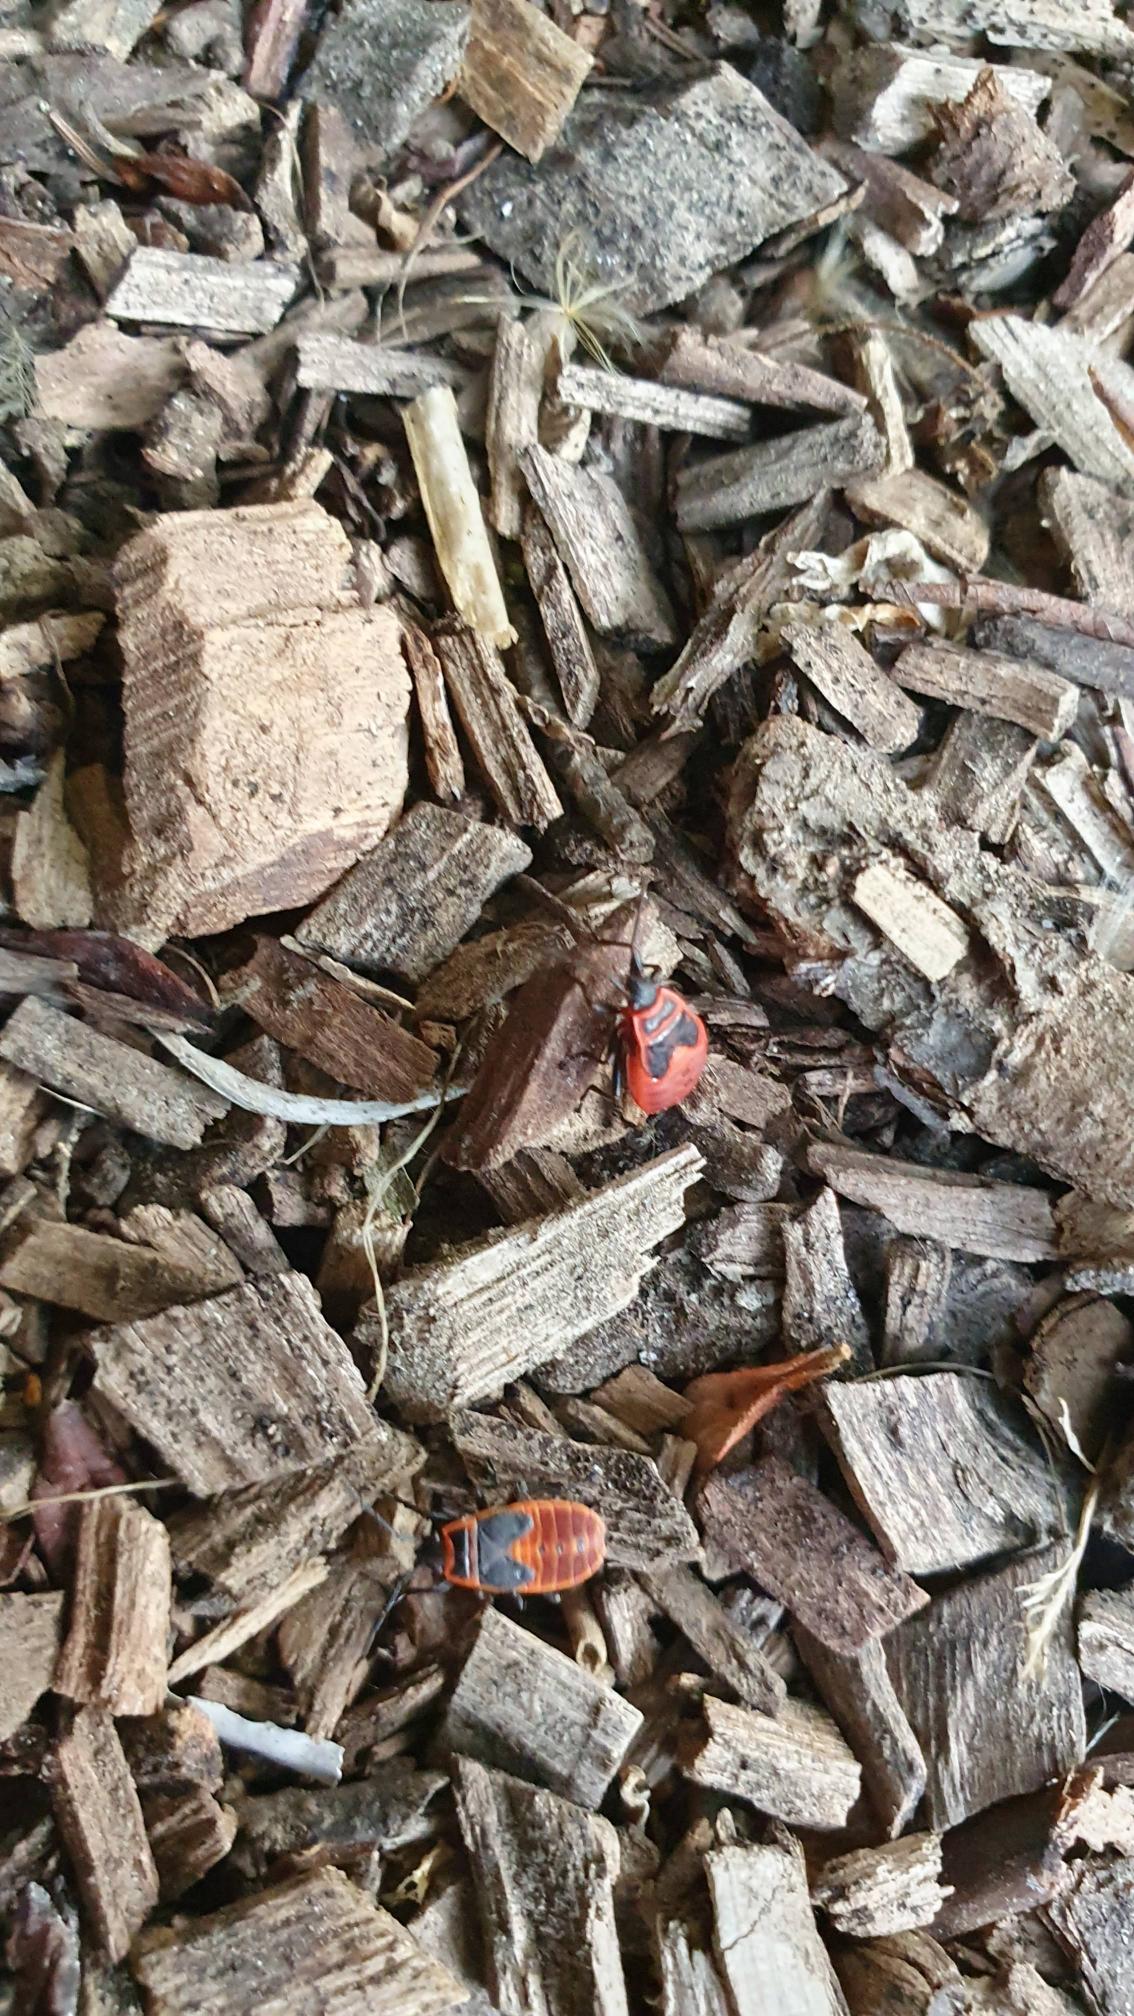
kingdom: Animalia
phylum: Arthropoda
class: Insecta
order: Hemiptera
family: Pyrrhocoridae
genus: Pyrrhocoris
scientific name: Pyrrhocoris apterus
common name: Ildtæge
